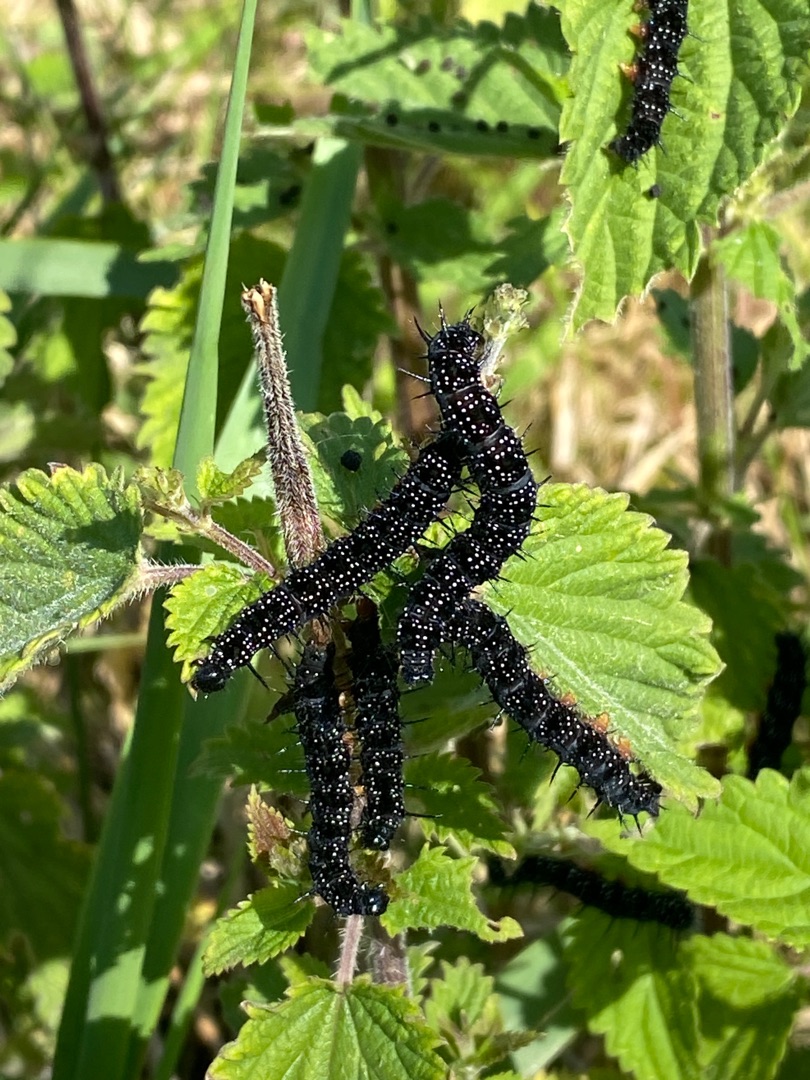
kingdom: Animalia
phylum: Arthropoda
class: Insecta
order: Lepidoptera
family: Nymphalidae
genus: Aglais
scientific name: Aglais io
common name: Dagpåfugleøje
